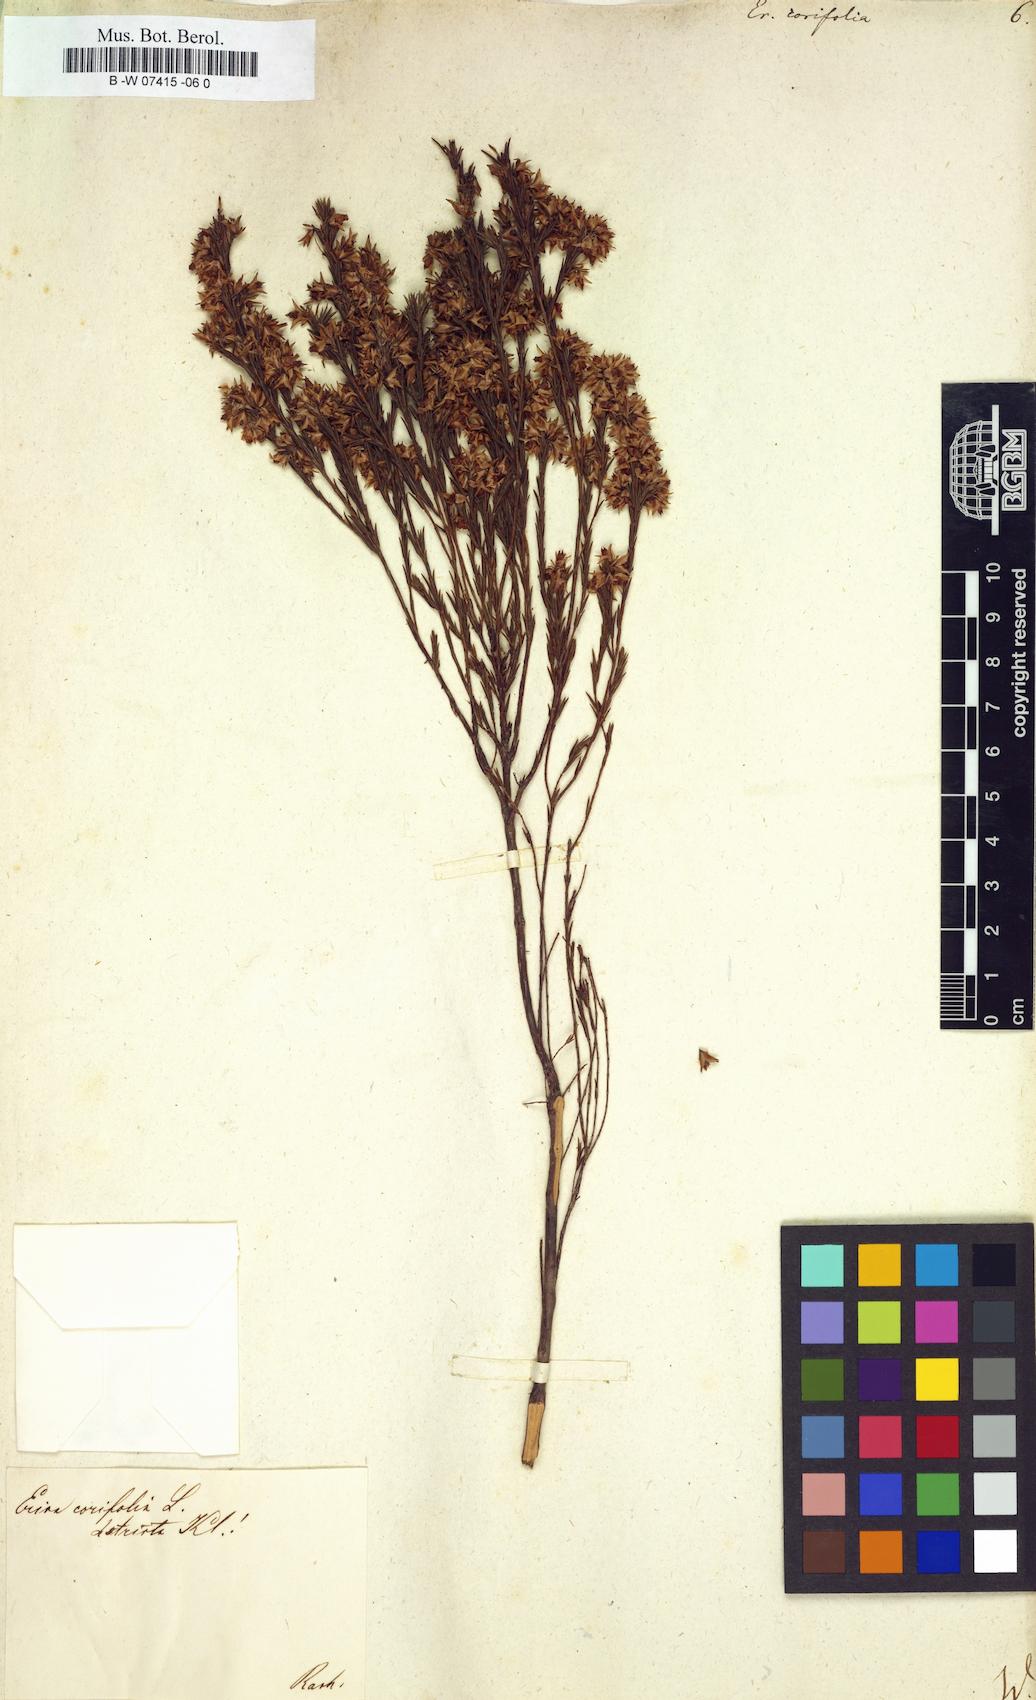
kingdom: Plantae
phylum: Tracheophyta
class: Magnoliopsida
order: Ericales
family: Ericaceae
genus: Erica
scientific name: Erica corifolia
